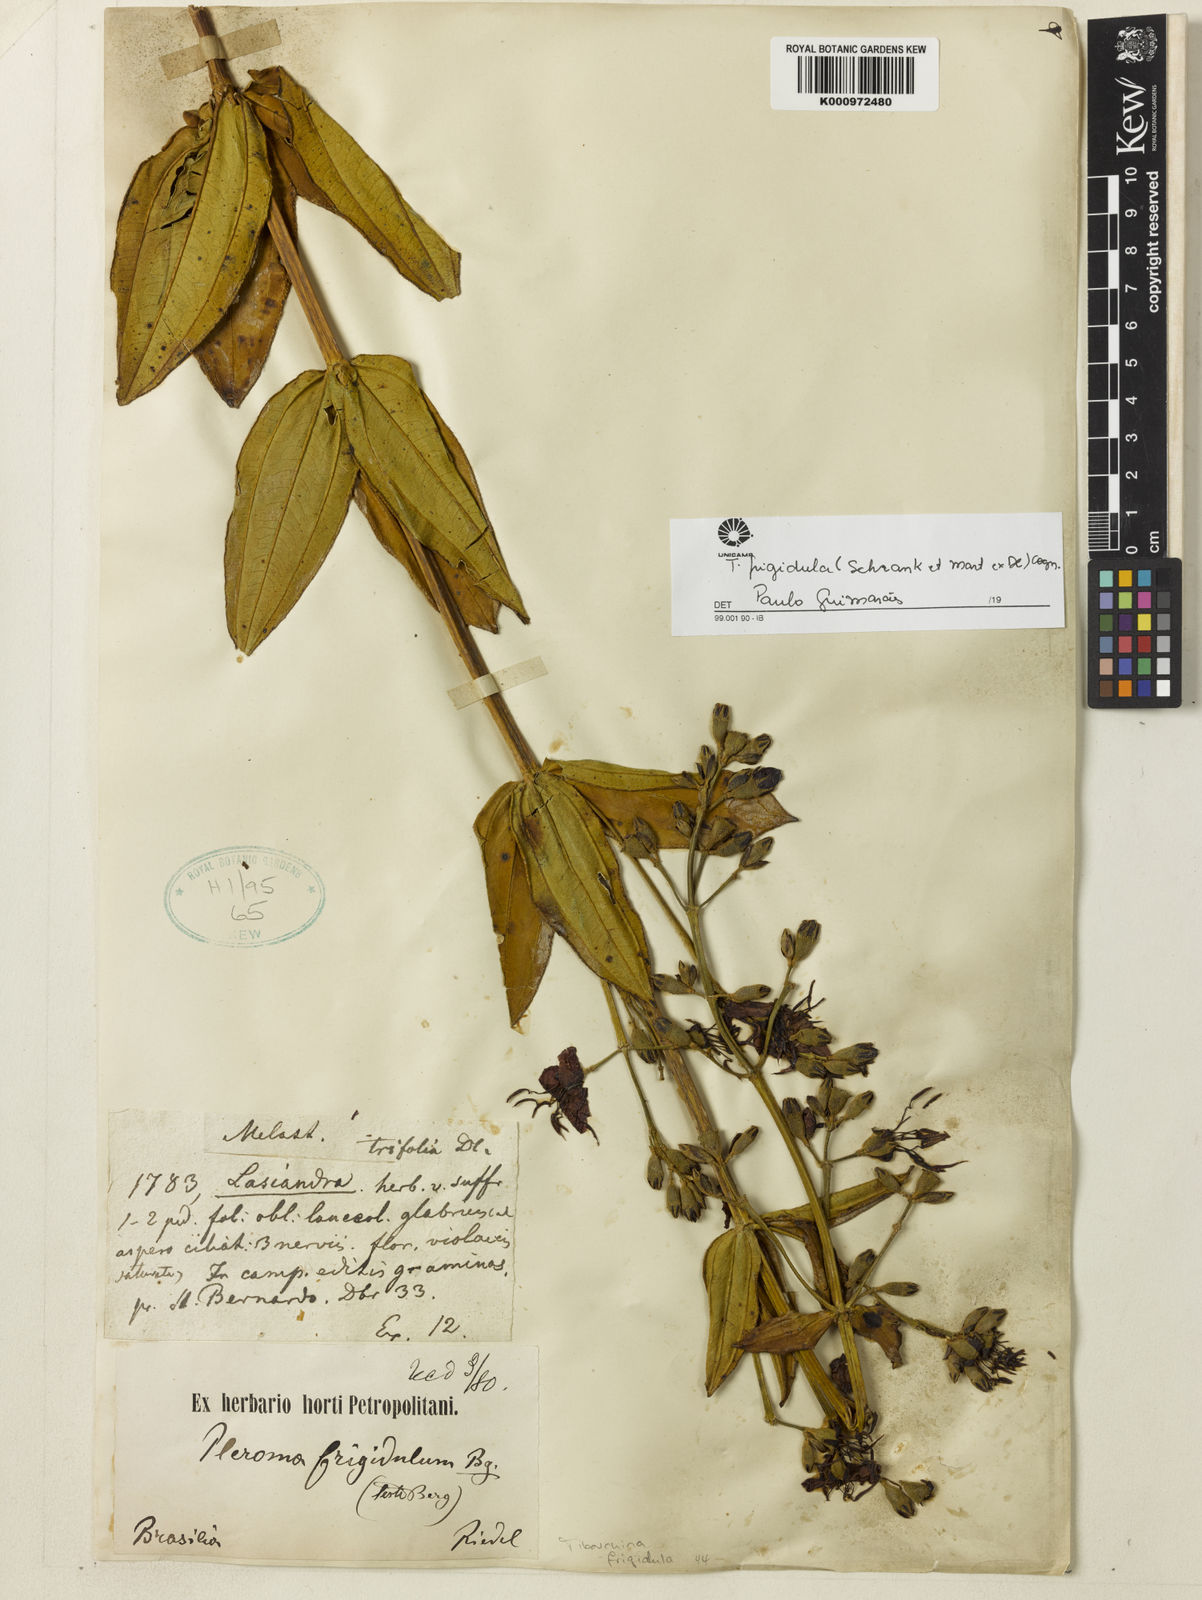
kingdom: Plantae
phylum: Tracheophyta
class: Magnoliopsida
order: Myrtales
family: Melastomataceae
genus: Pleroma
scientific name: Pleroma martiusianum
